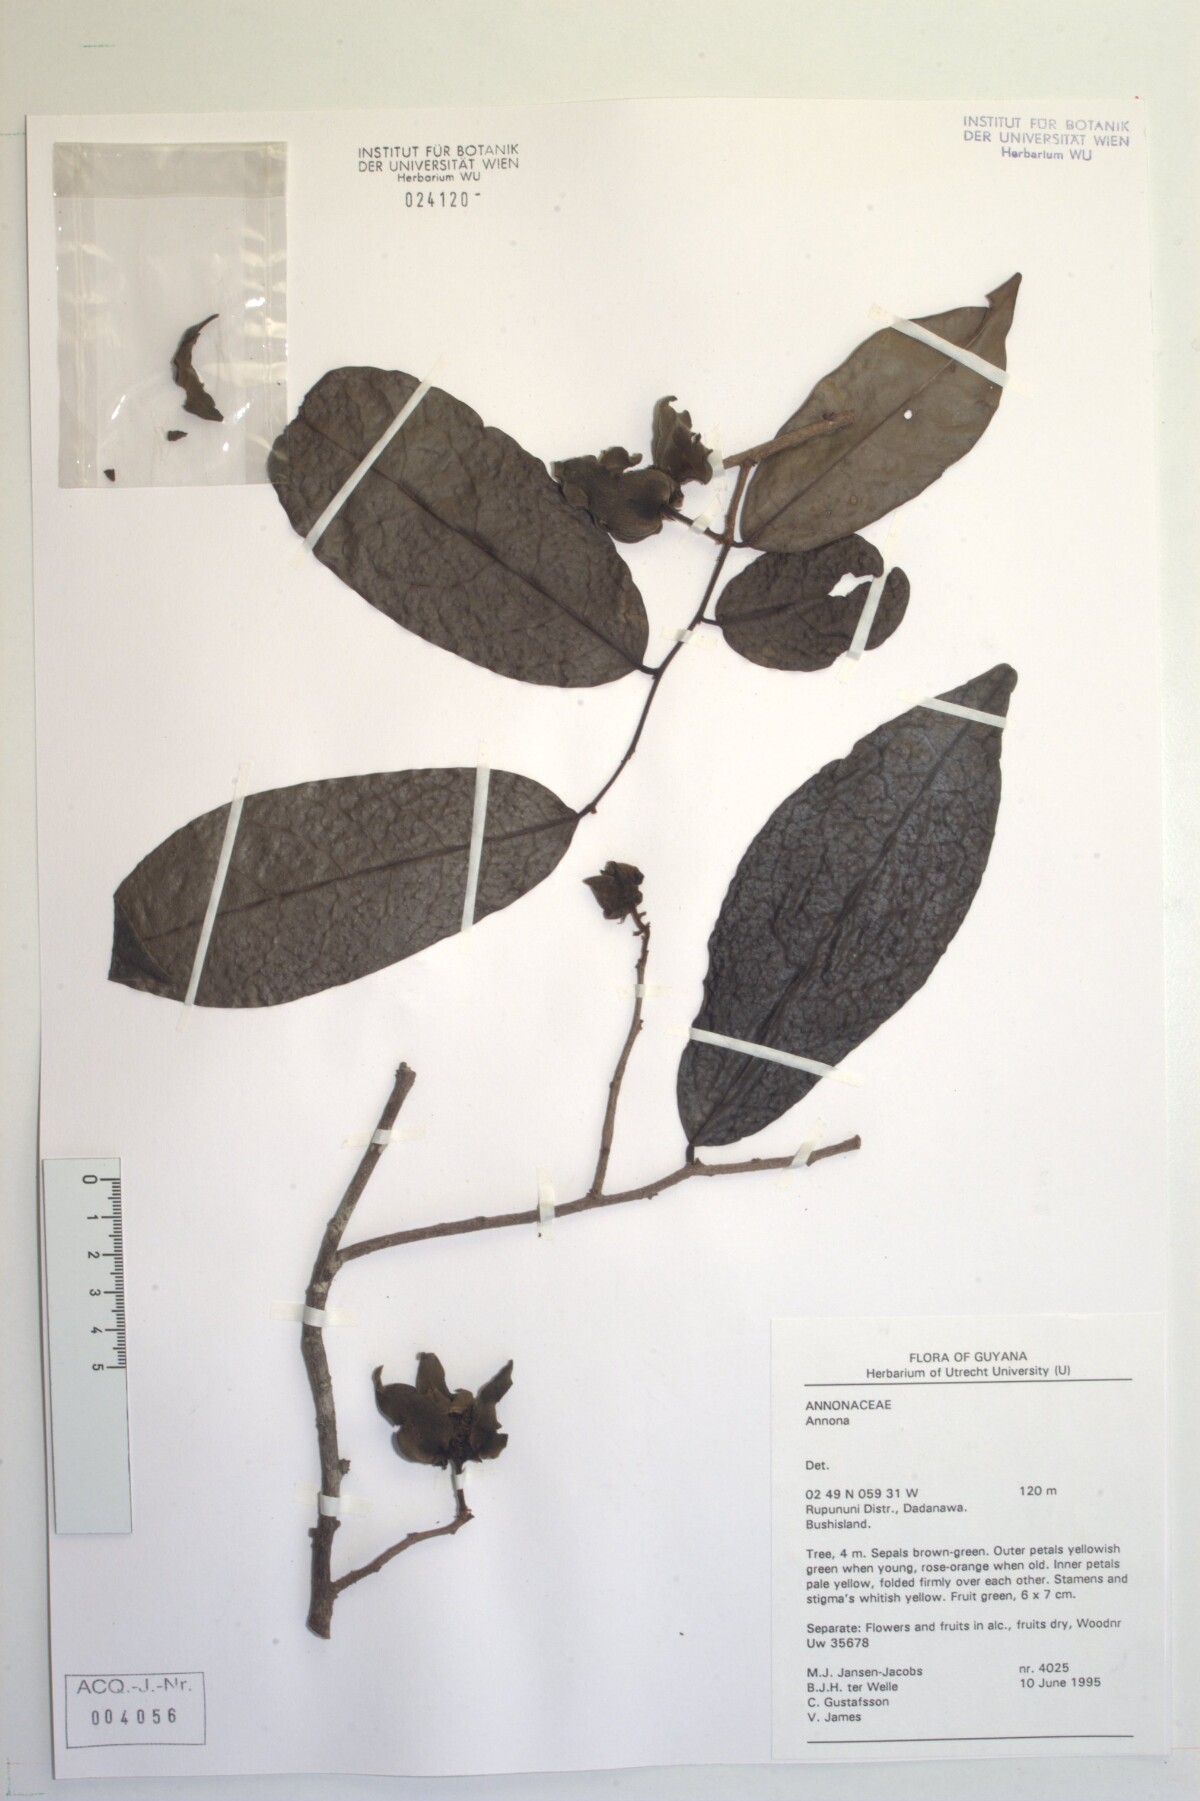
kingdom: Plantae
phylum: Tracheophyta
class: Magnoliopsida
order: Magnoliales
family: Annonaceae
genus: Annona
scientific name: Annona
